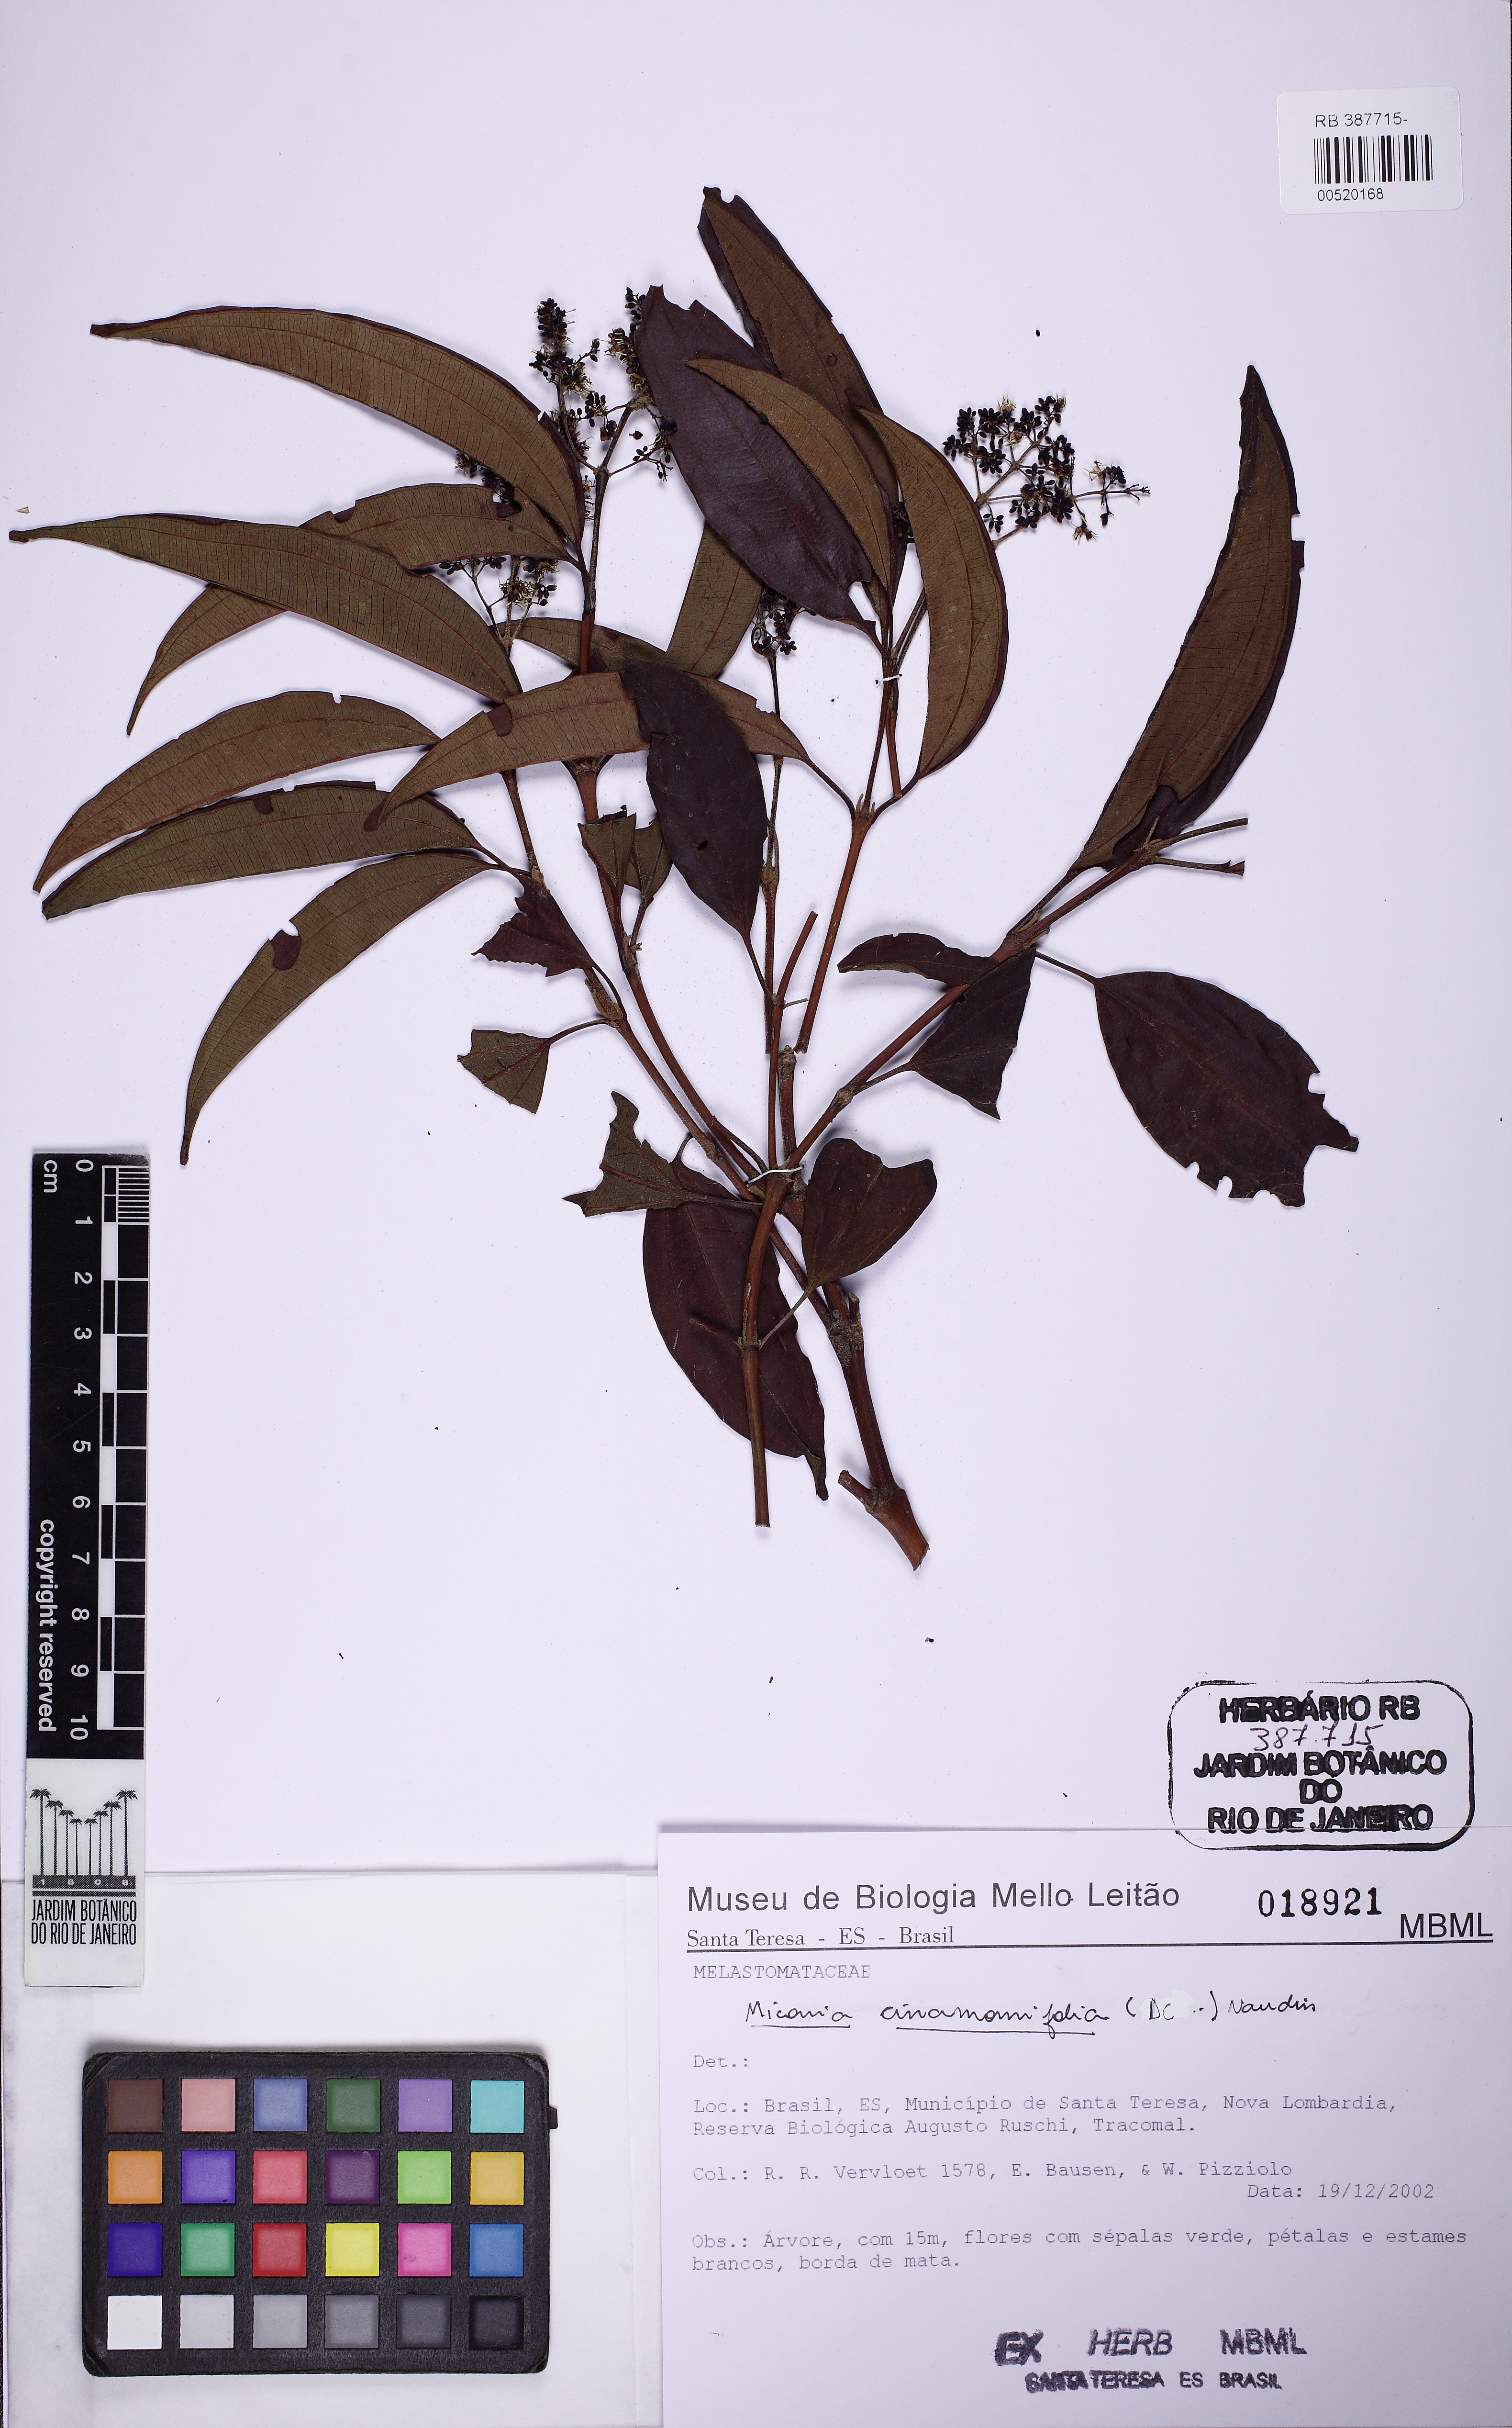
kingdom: Plantae
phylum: Tracheophyta
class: Magnoliopsida
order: Myrtales
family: Melastomataceae
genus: Miconia
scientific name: Miconia cinnamomifolia
